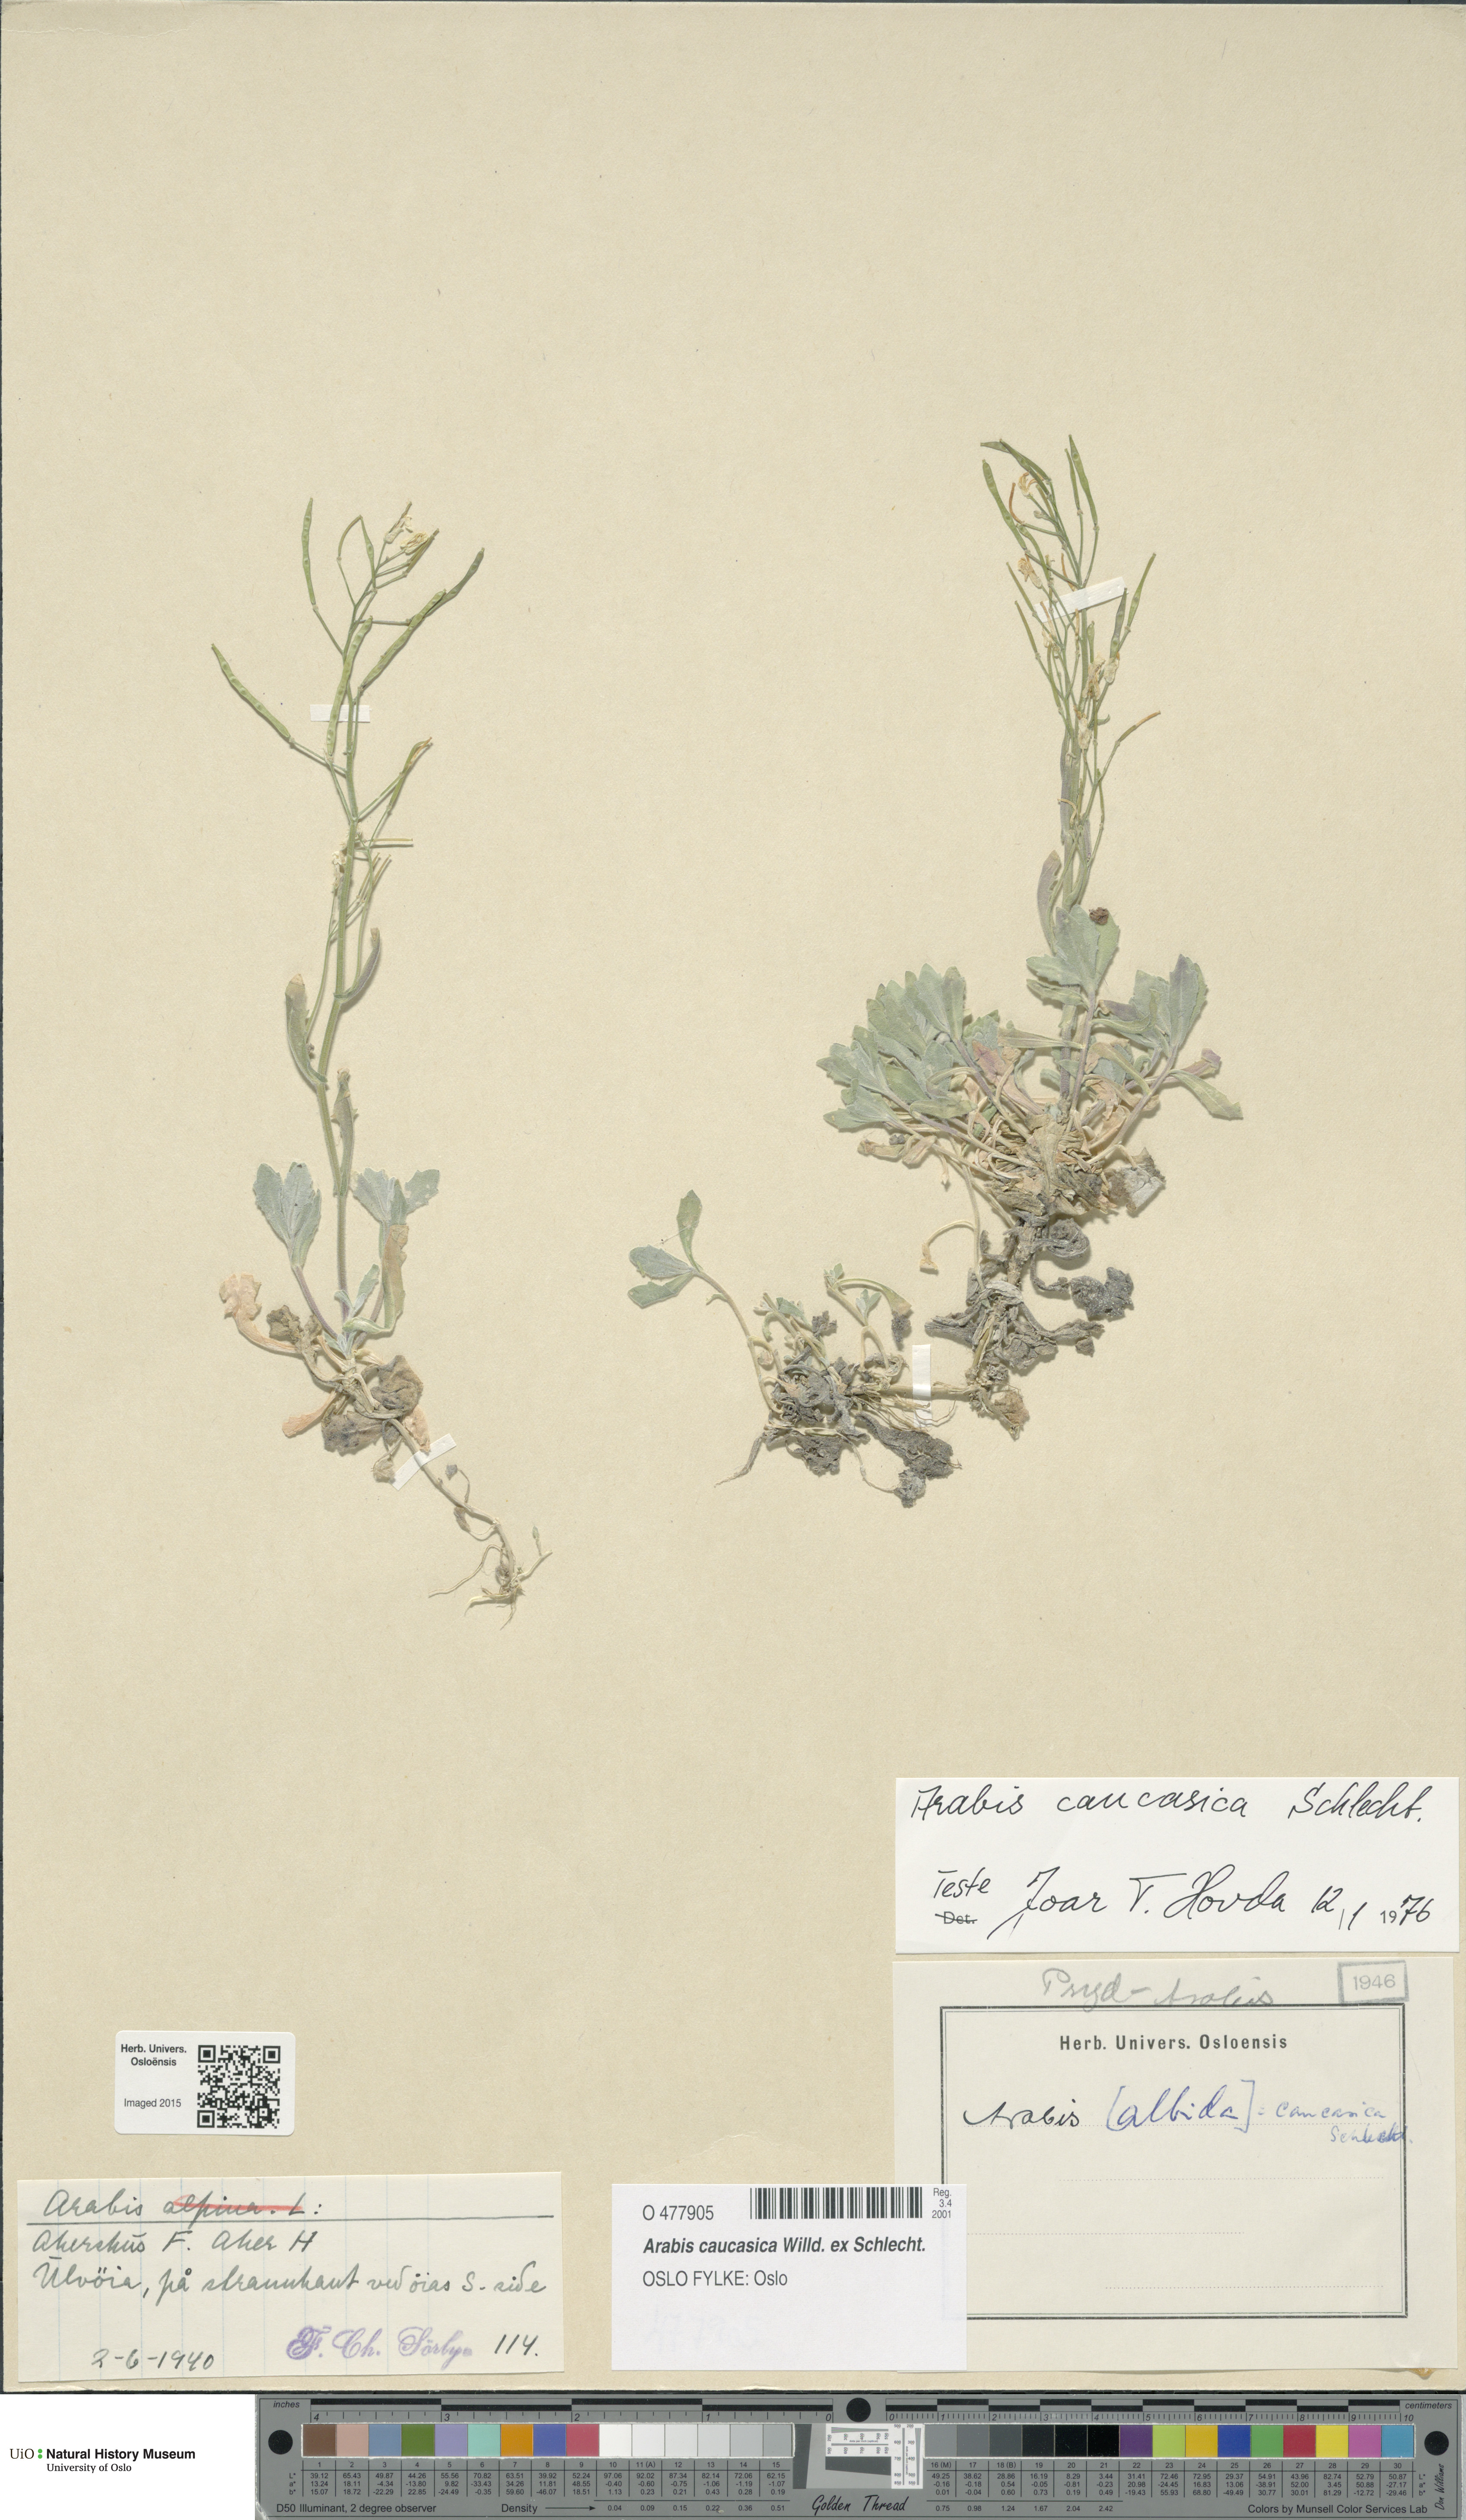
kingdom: Plantae
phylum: Tracheophyta
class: Magnoliopsida
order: Brassicales
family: Brassicaceae
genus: Arabis
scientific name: Arabis caucasica
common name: Gray rockcress
